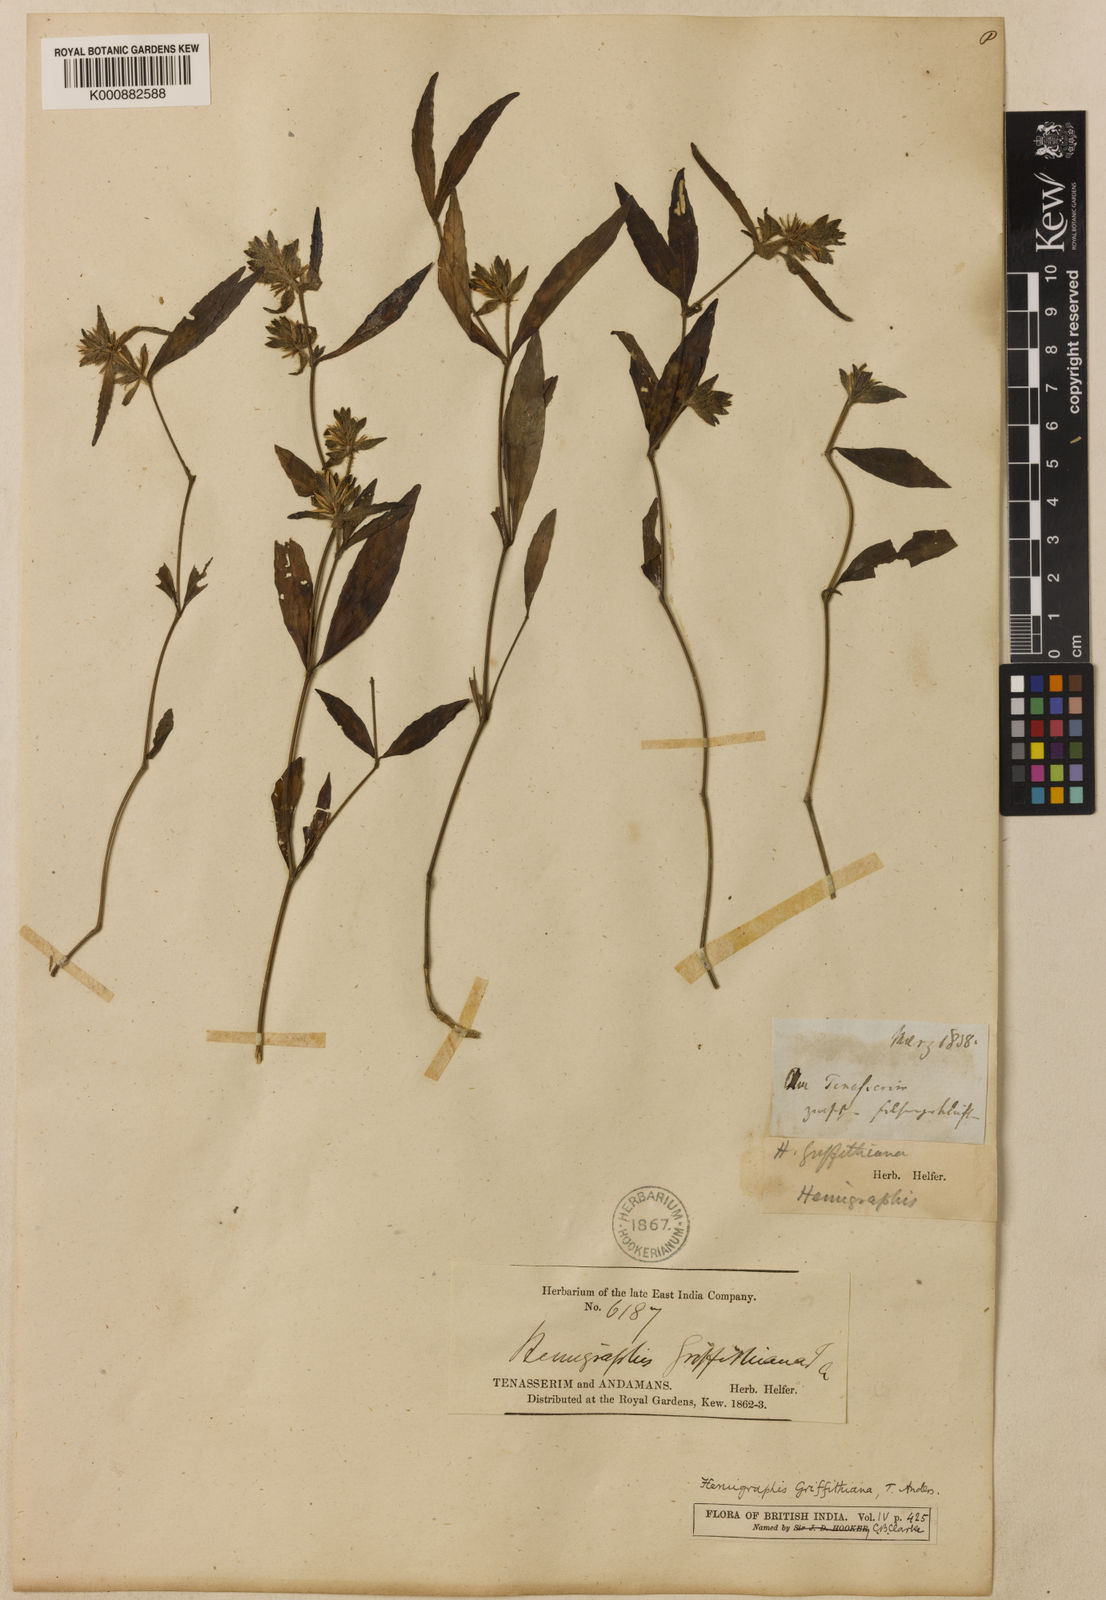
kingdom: Plantae
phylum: Tracheophyta
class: Magnoliopsida
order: Lamiales
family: Acanthaceae
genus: Strobilanthes
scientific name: Strobilanthes brunelloides
